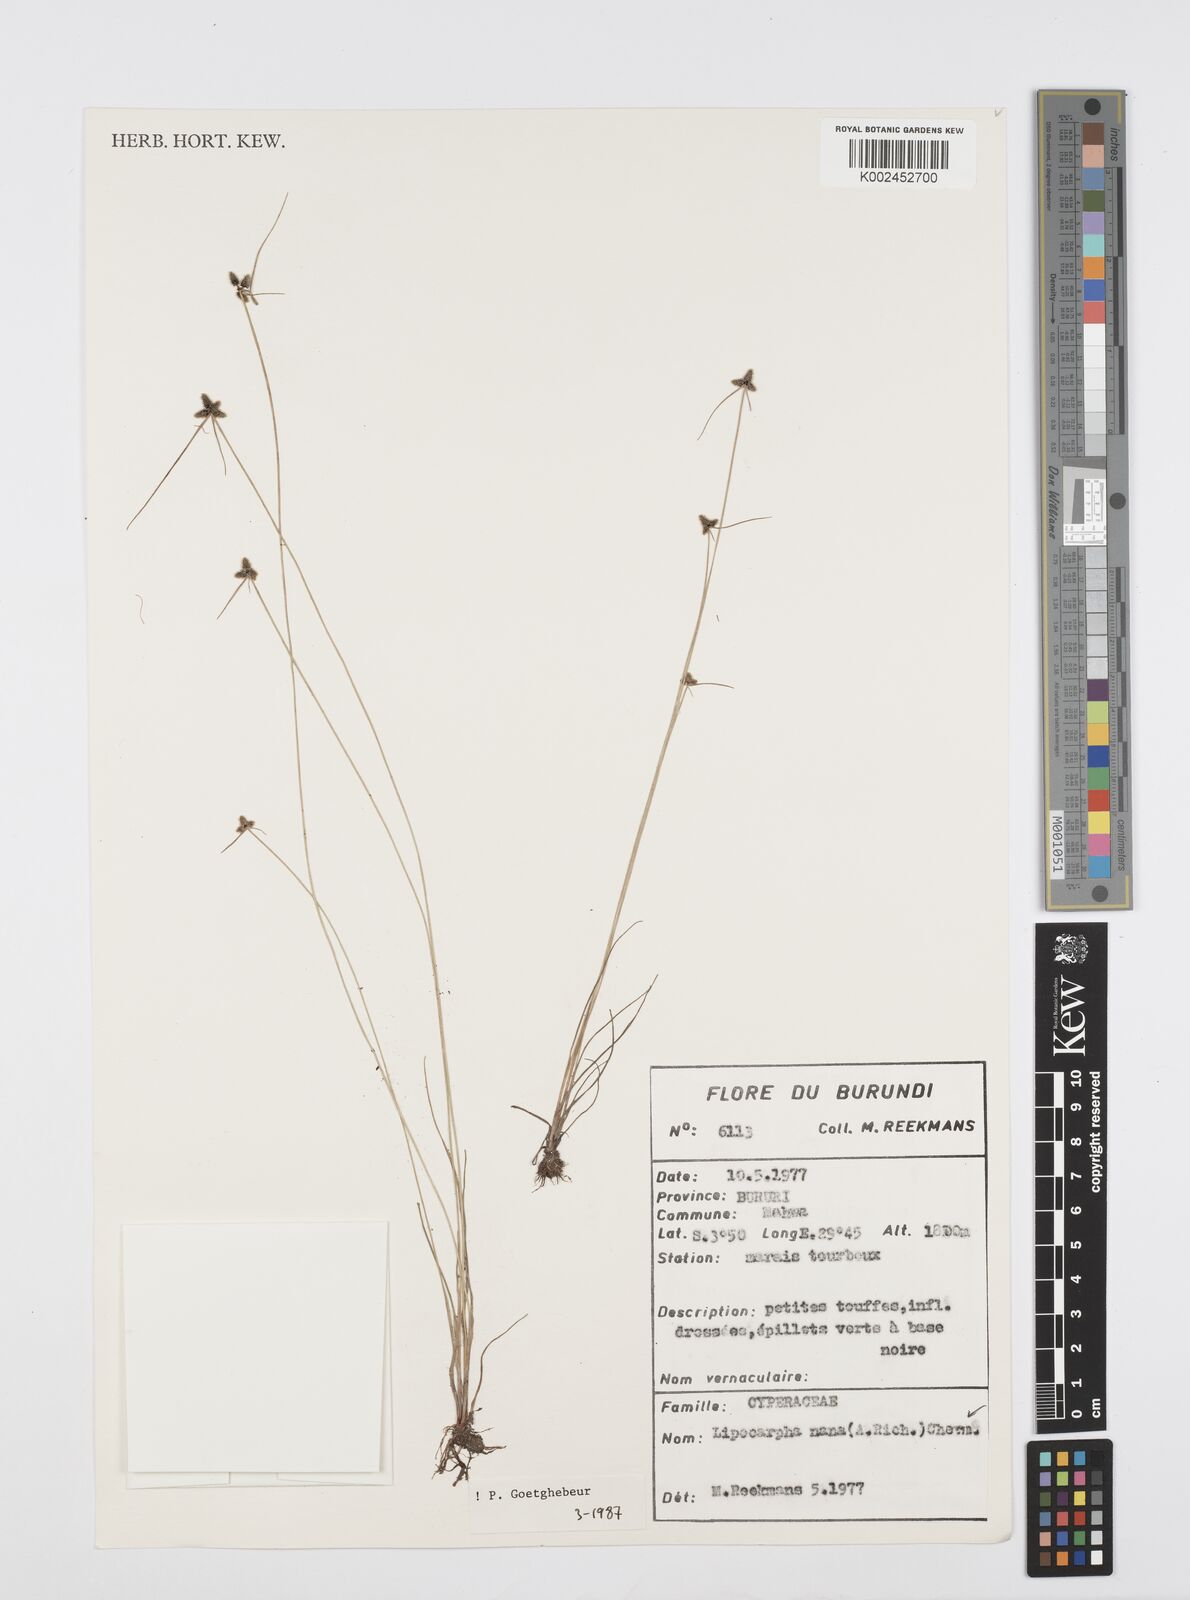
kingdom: Plantae
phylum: Tracheophyta
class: Liliopsida
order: Poales
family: Cyperaceae
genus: Cyperus
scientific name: Cyperus persquarrosus
